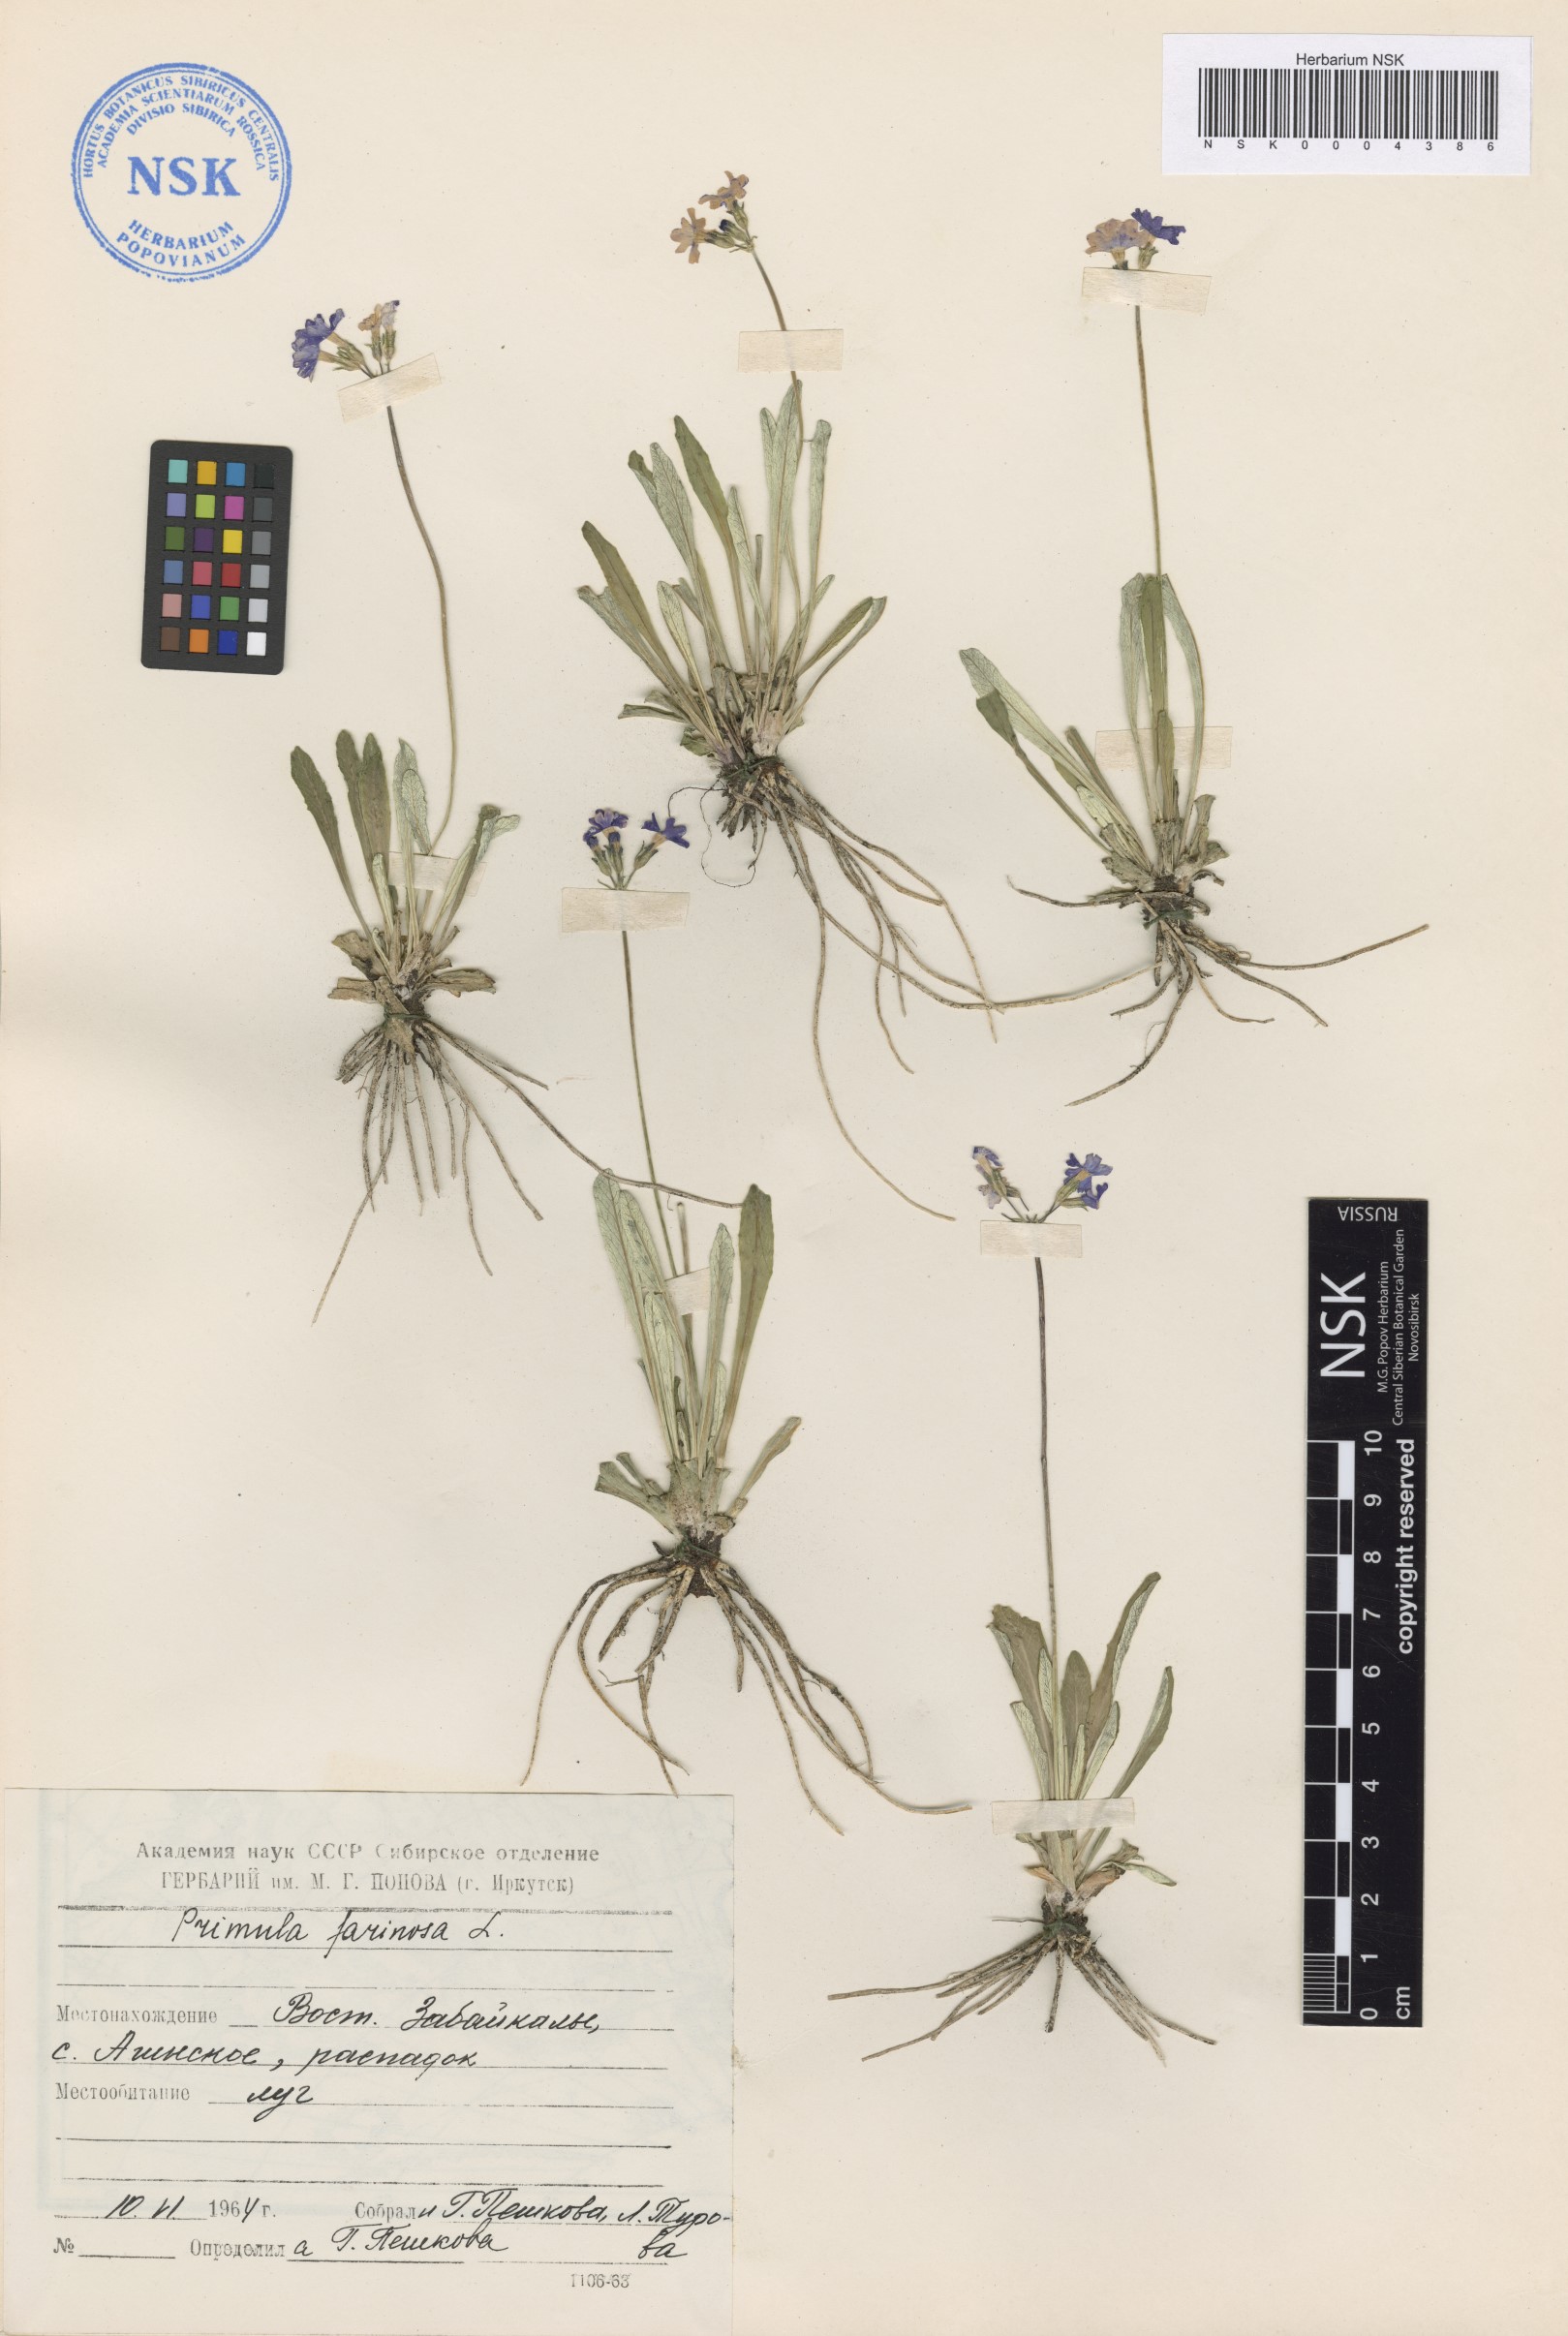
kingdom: Plantae
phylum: Tracheophyta
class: Magnoliopsida
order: Ericales
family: Primulaceae
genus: Primula
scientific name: Primula farinosa
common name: Bird's-eye primrose
